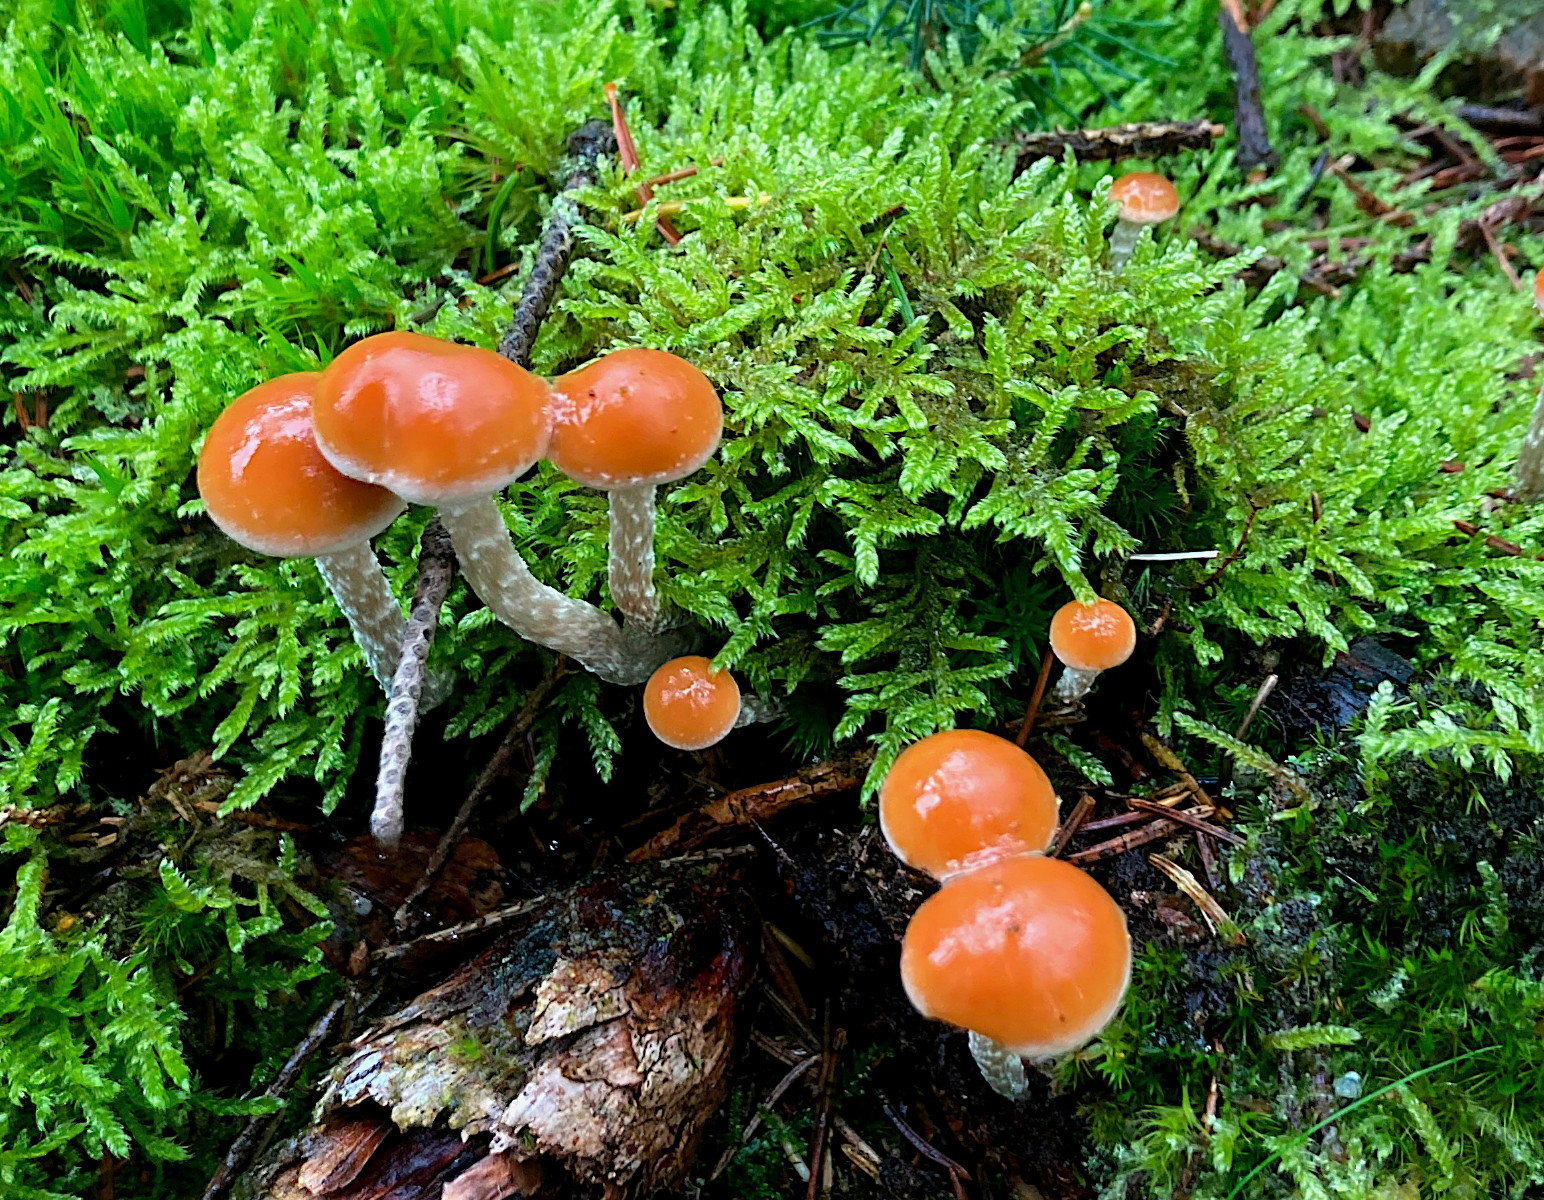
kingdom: Fungi
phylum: Basidiomycota
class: Agaricomycetes
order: Agaricales
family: Strophariaceae
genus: Hypholoma
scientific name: Hypholoma marginatum
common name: enlig svovlhat
